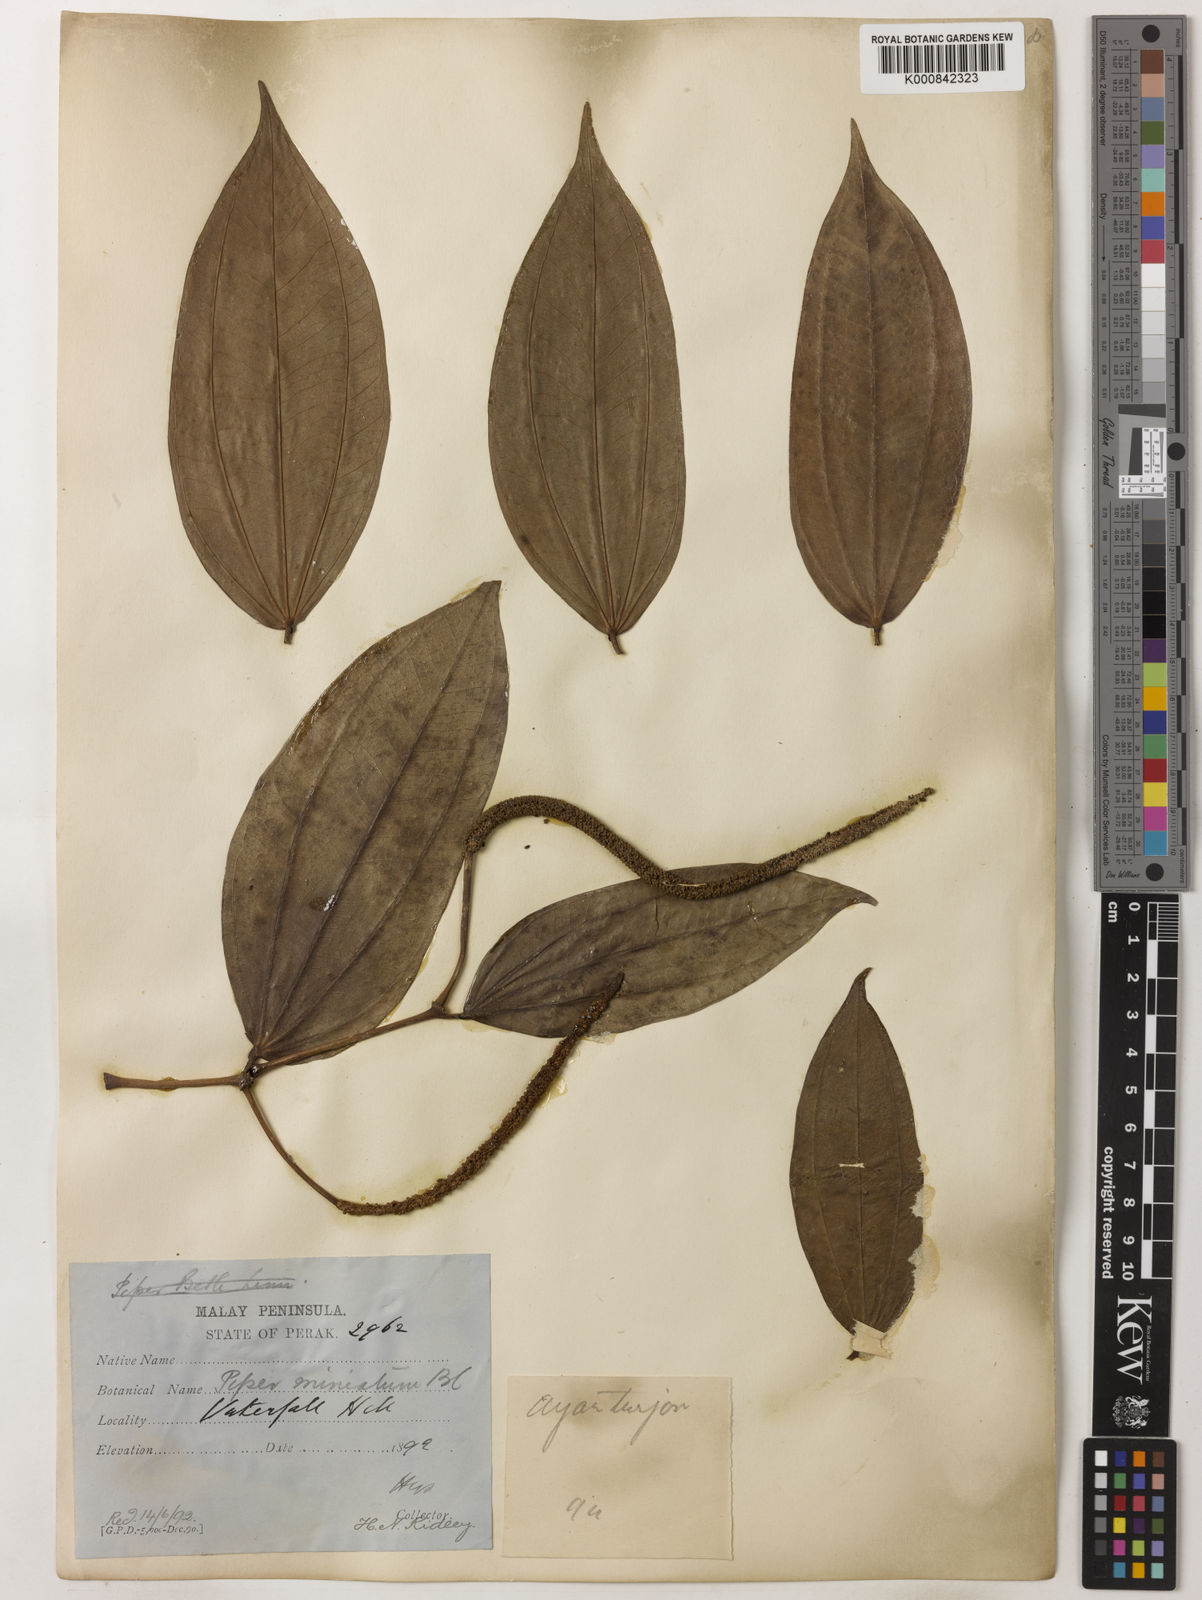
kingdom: Plantae
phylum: Tracheophyta
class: Magnoliopsida
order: Piperales
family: Piperaceae
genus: Piper
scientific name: Piper macropiper
